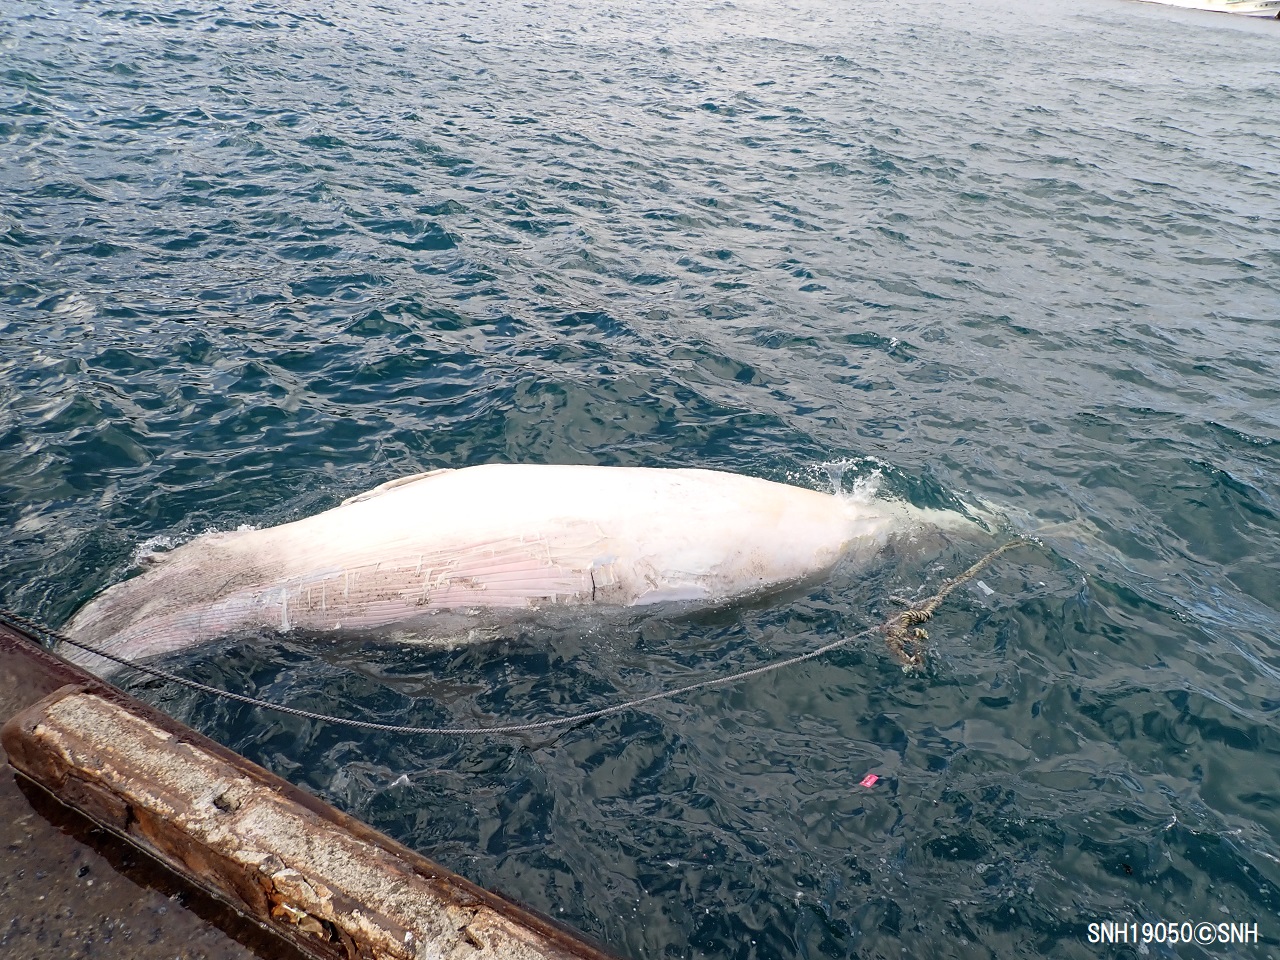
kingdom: Animalia
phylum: Chordata
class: Mammalia
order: Cetacea
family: Balaenopteridae
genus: Balaenoptera
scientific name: Balaenoptera acutorostrata
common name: Minke whale
